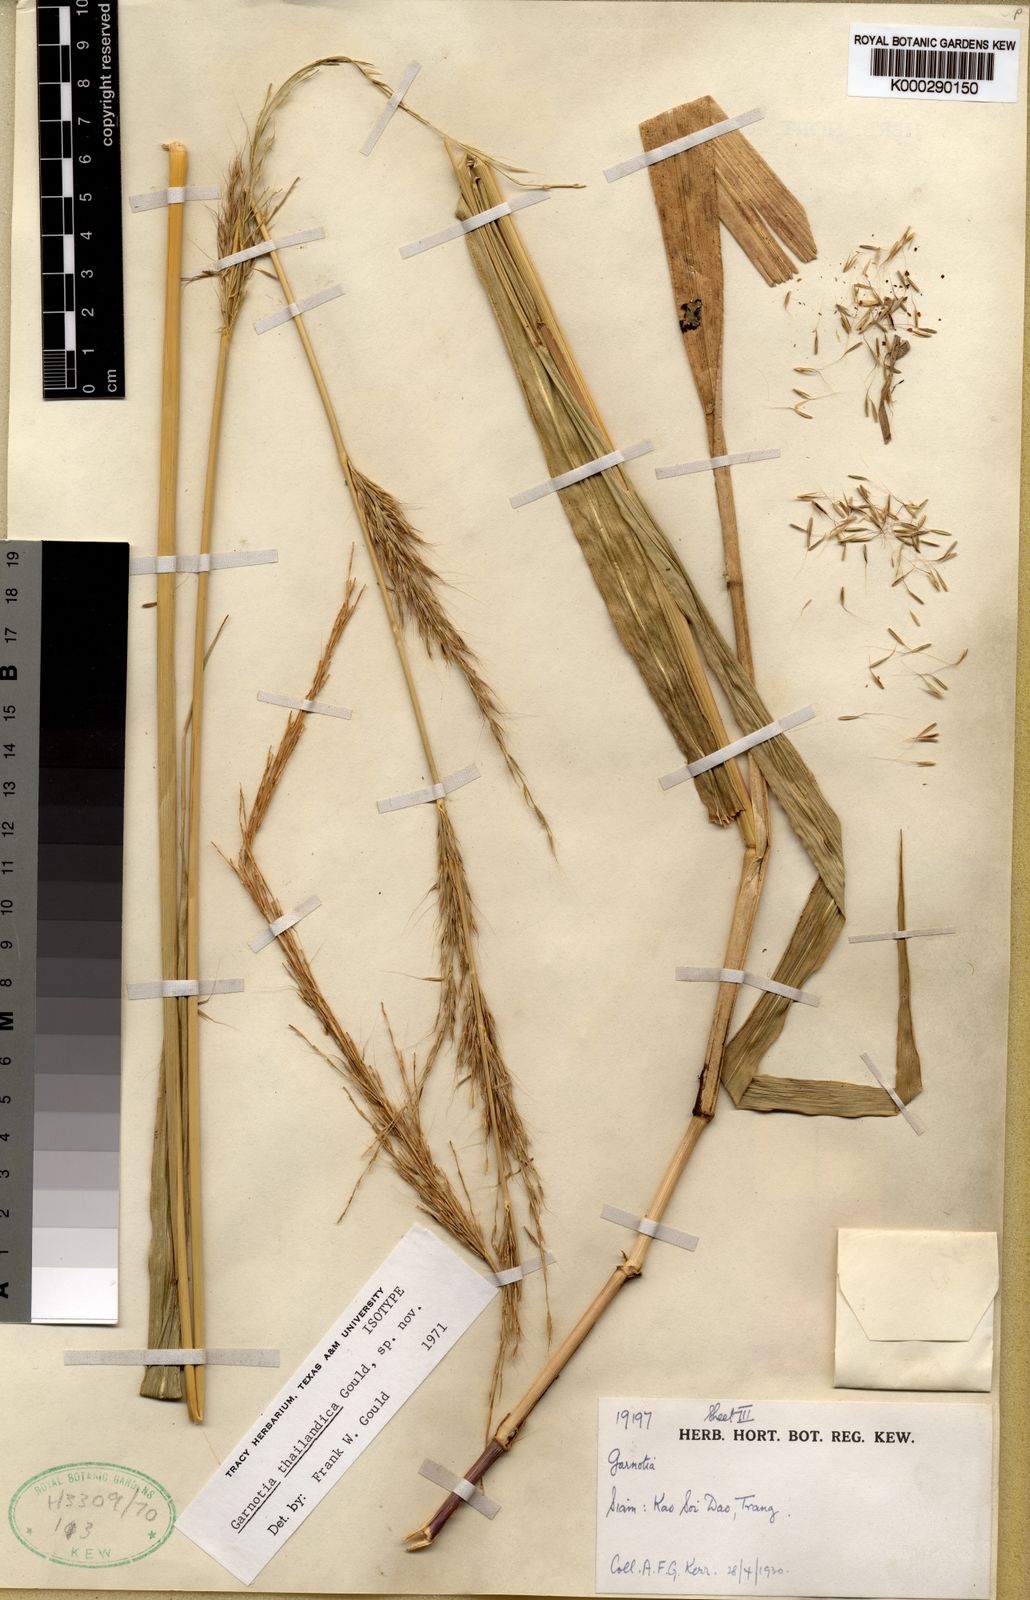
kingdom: Plantae
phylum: Tracheophyta
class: Liliopsida
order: Poales
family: Poaceae
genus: Garnotia
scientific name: Garnotia thailandica
